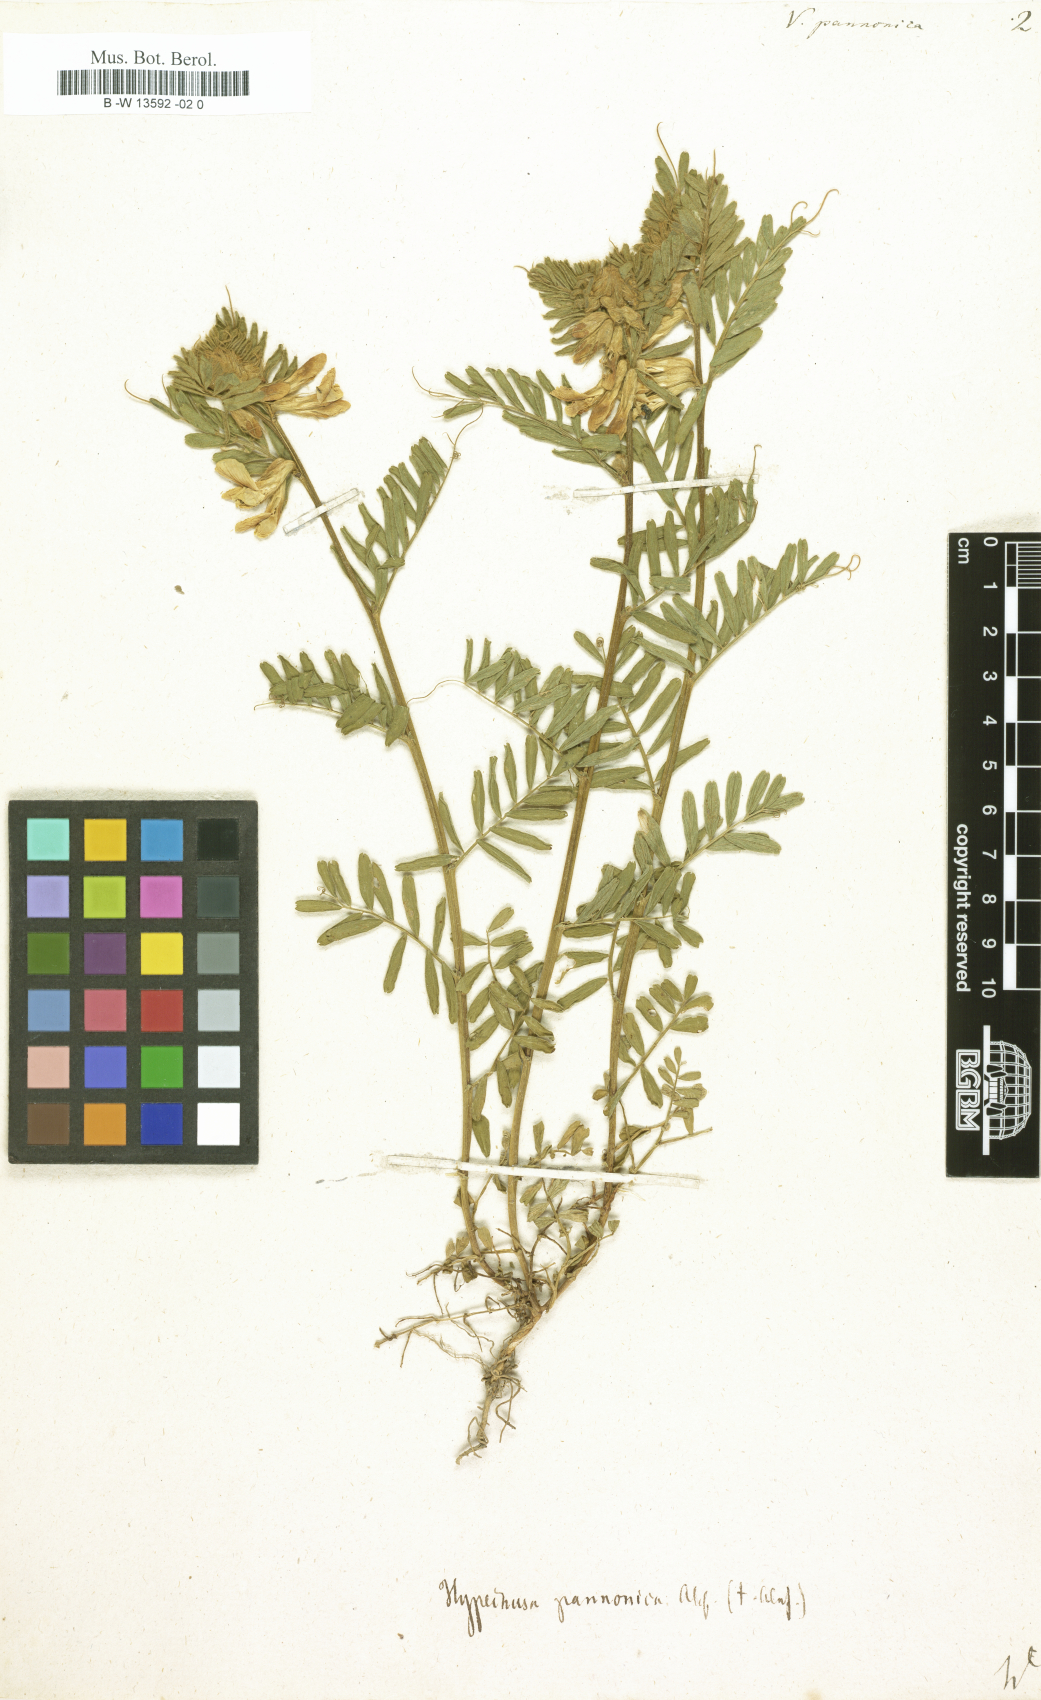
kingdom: Plantae
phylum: Tracheophyta
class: Magnoliopsida
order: Fabales
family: Fabaceae
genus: Vicia
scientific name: Vicia pannonica
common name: Hungarian vetch
